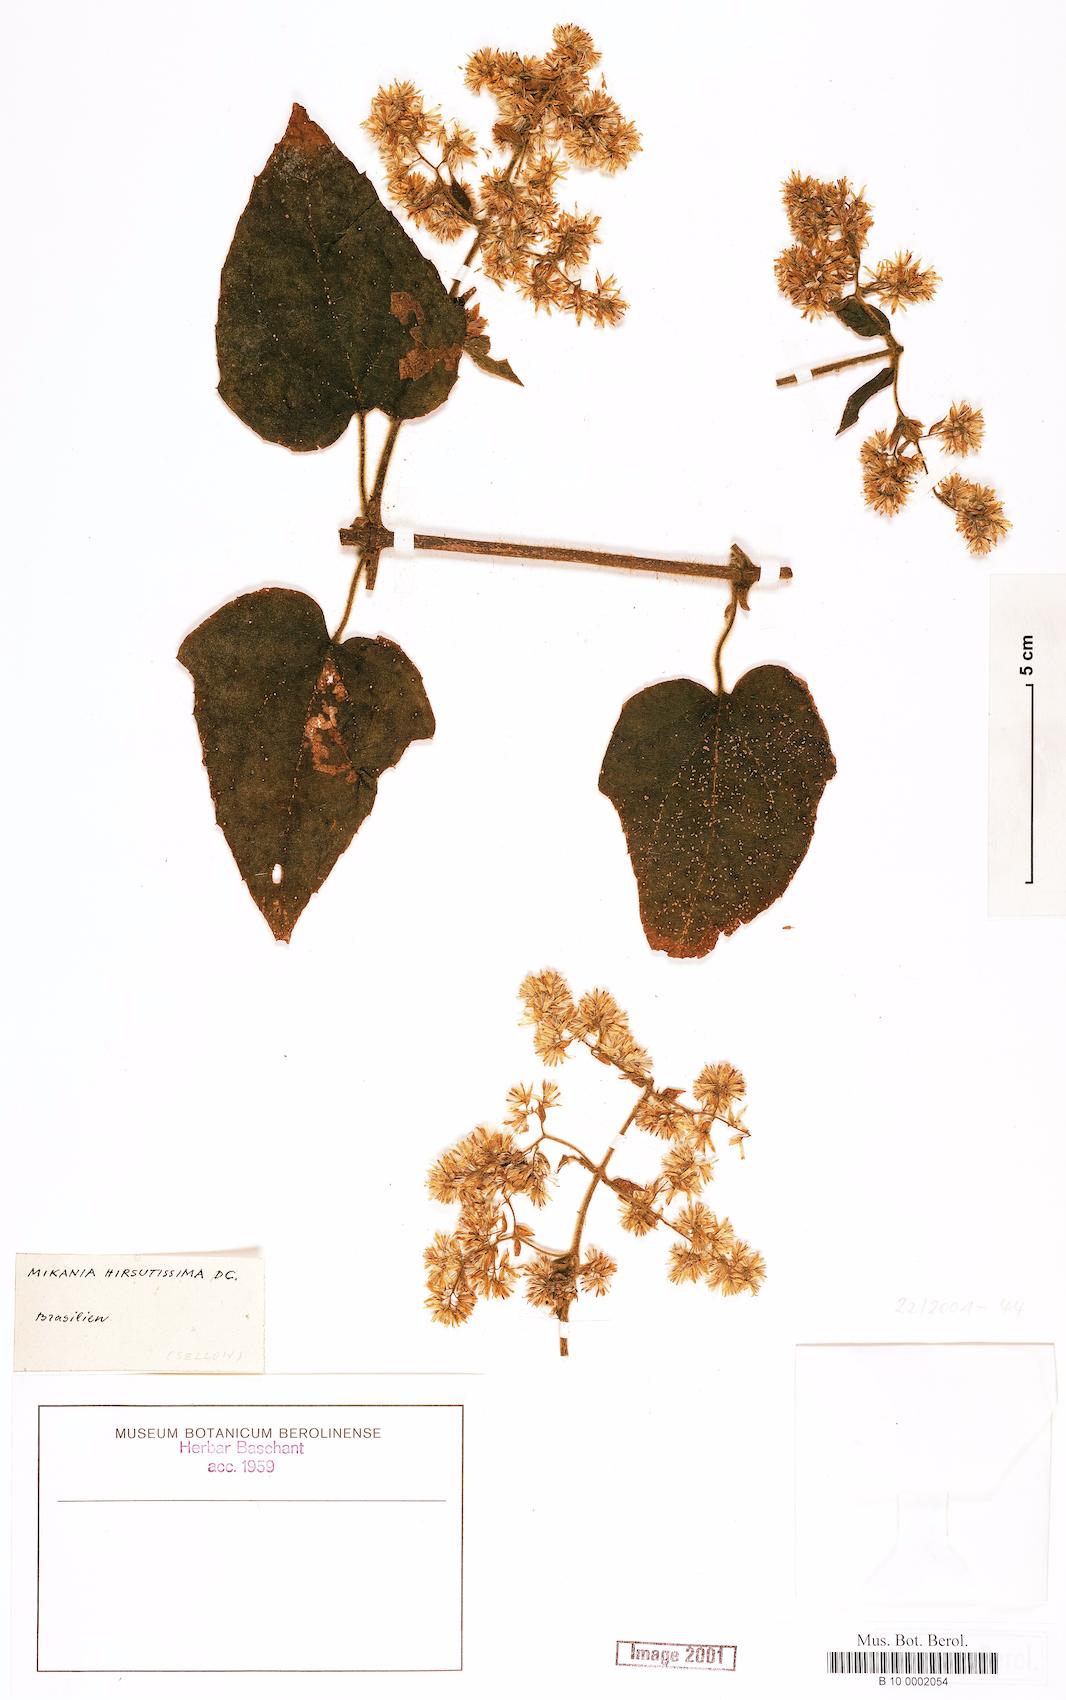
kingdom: Plantae
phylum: Tracheophyta
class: Magnoliopsida
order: Asterales
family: Asteraceae
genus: Mikania
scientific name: Mikania banisteriae
